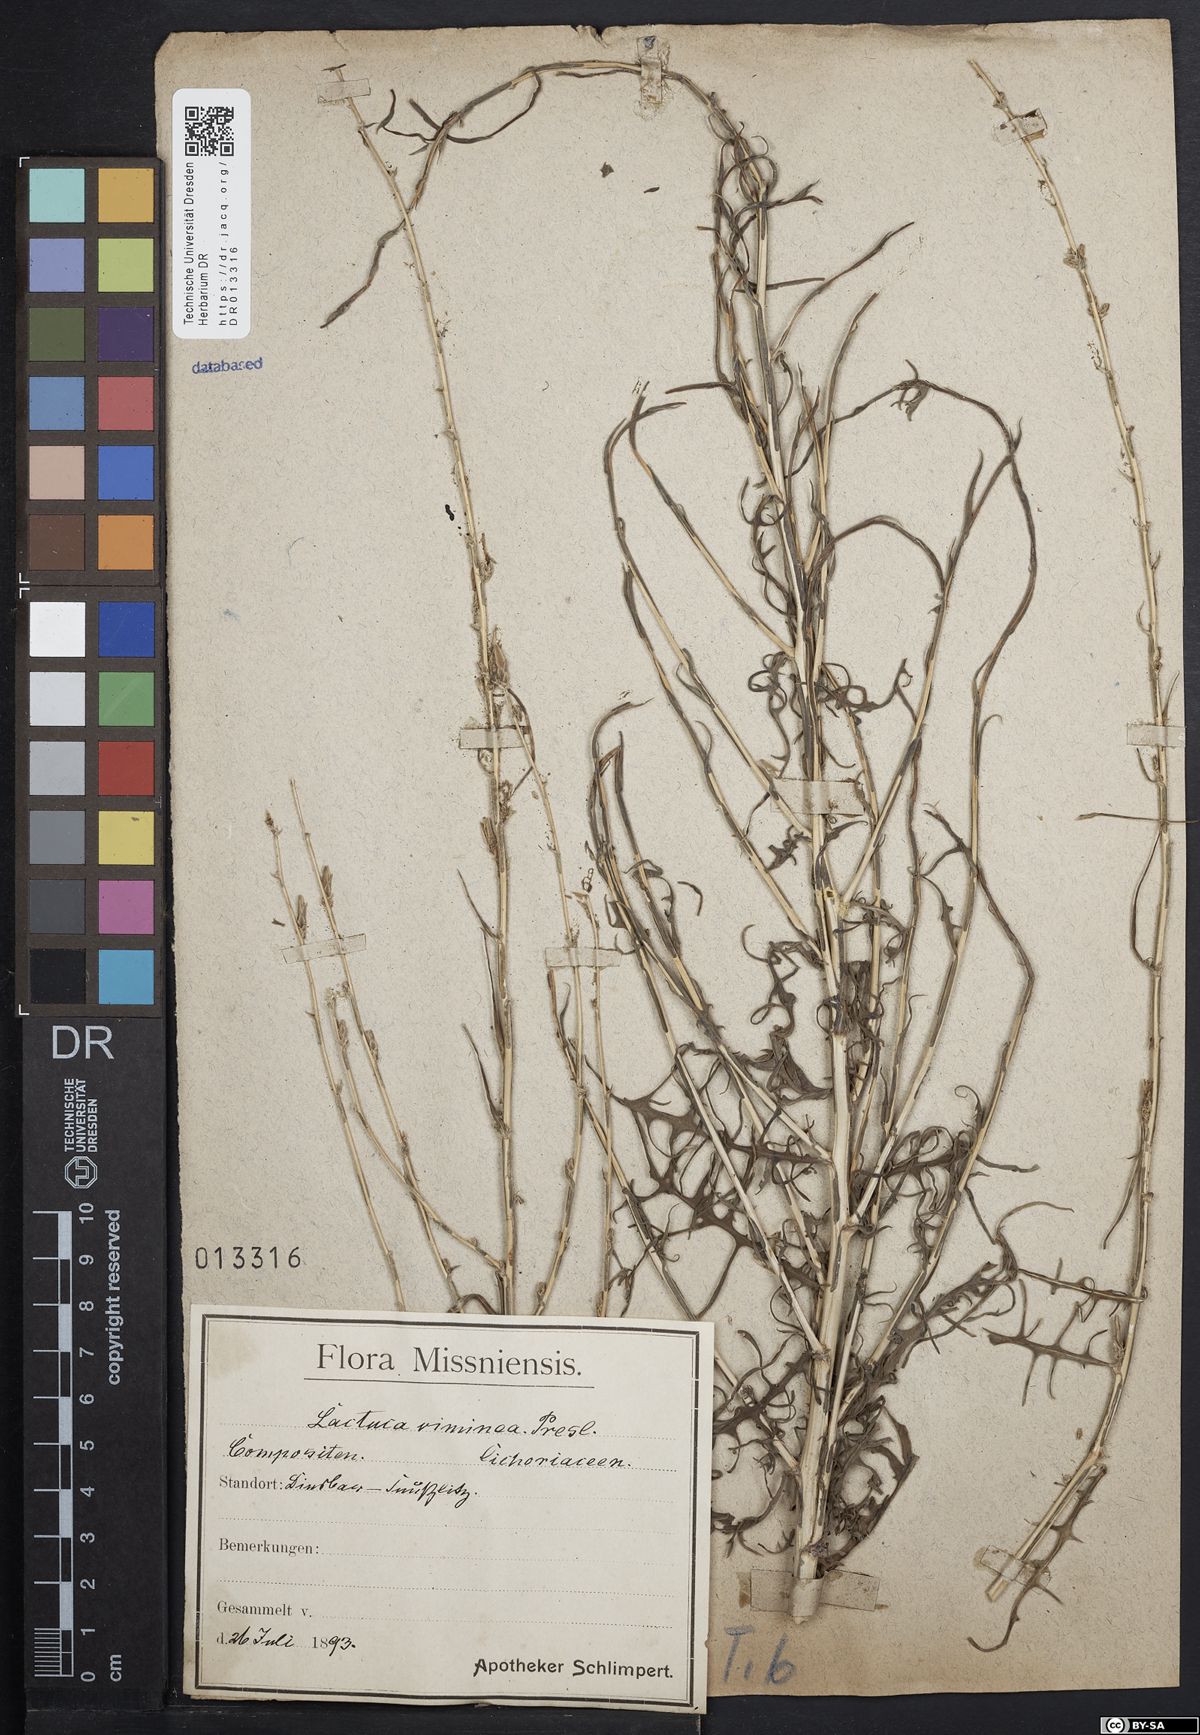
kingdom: Plantae
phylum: Tracheophyta
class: Magnoliopsida
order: Asterales
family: Asteraceae
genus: Lactuca
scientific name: Lactuca viminea
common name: Pliant lettuce
